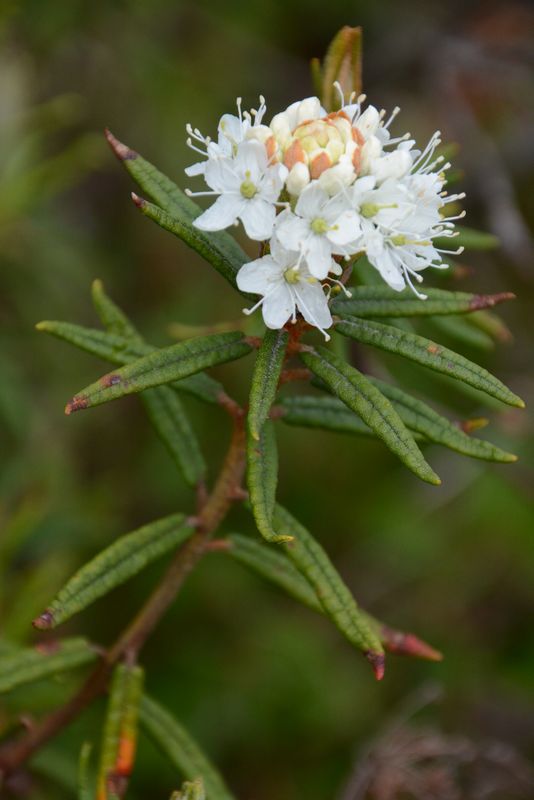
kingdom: Plantae
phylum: Tracheophyta
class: Magnoliopsida
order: Ericales
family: Ericaceae
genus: Rhododendron
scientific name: Rhododendron tomentosum
